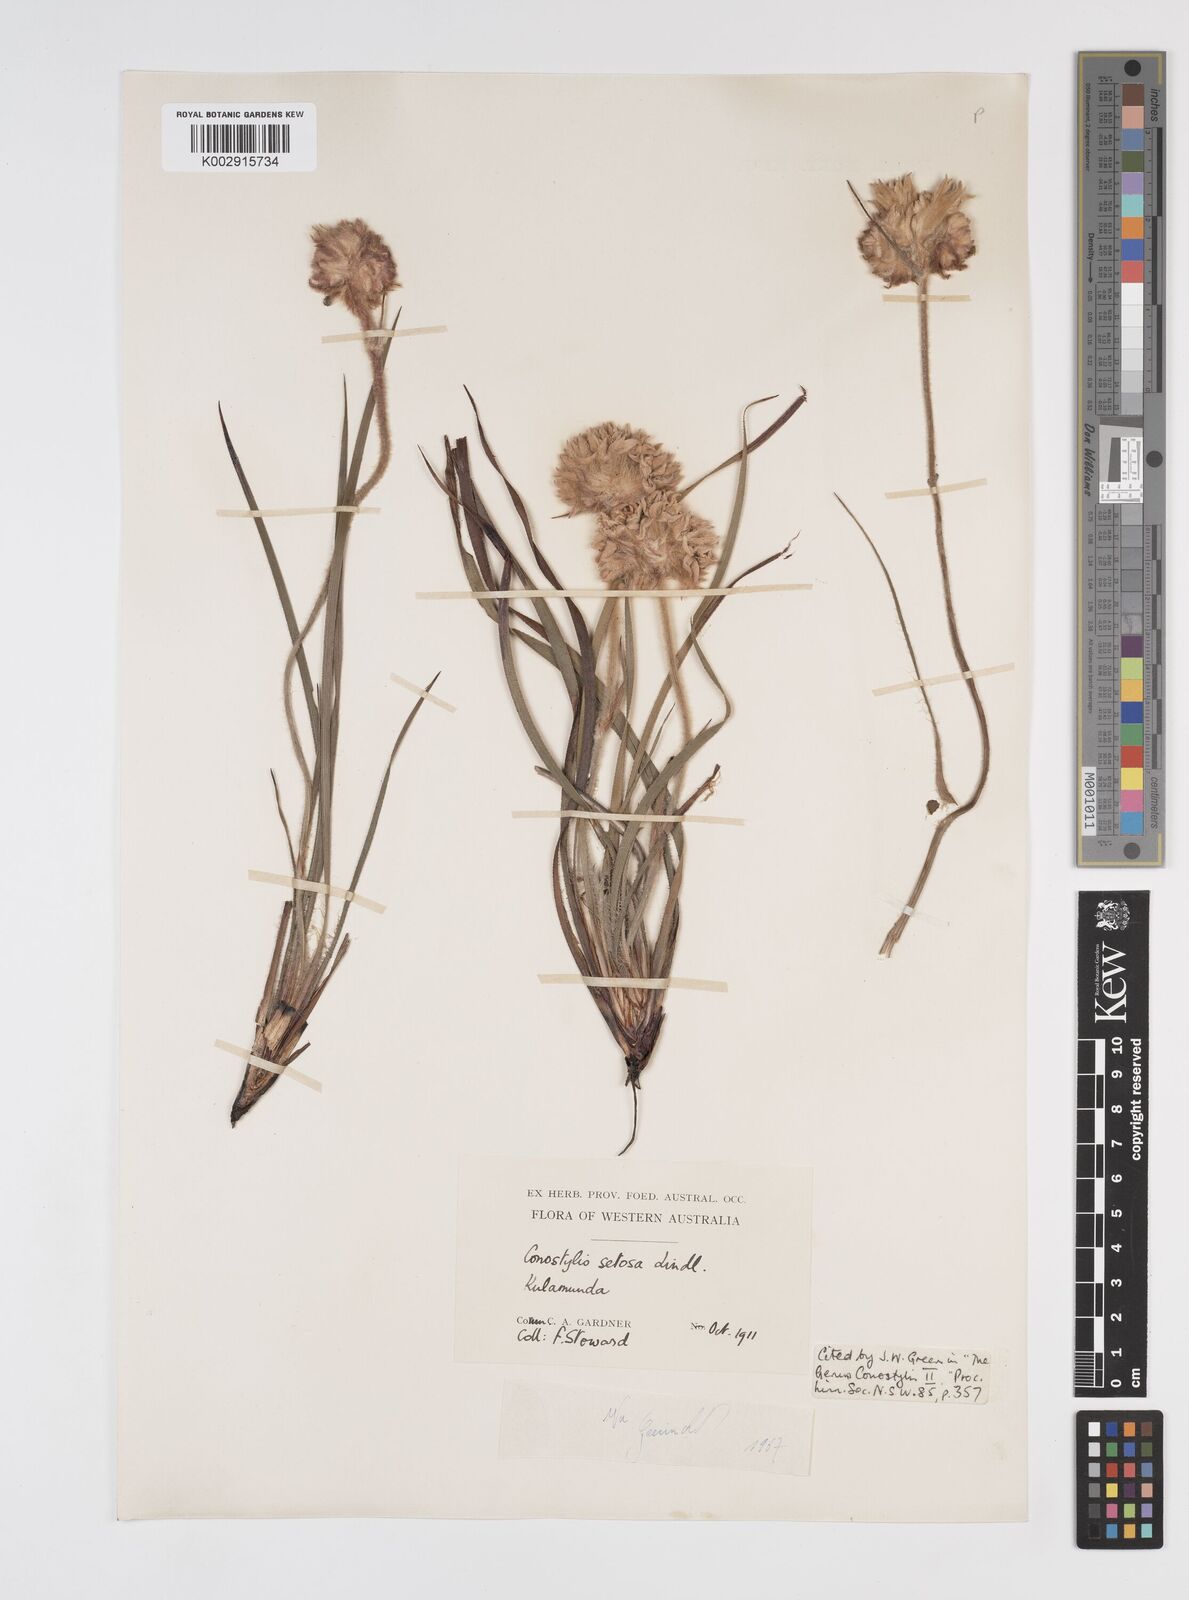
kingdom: Plantae
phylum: Tracheophyta
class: Liliopsida
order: Commelinales
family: Haemodoraceae
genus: Conostylis
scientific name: Conostylis setosa
